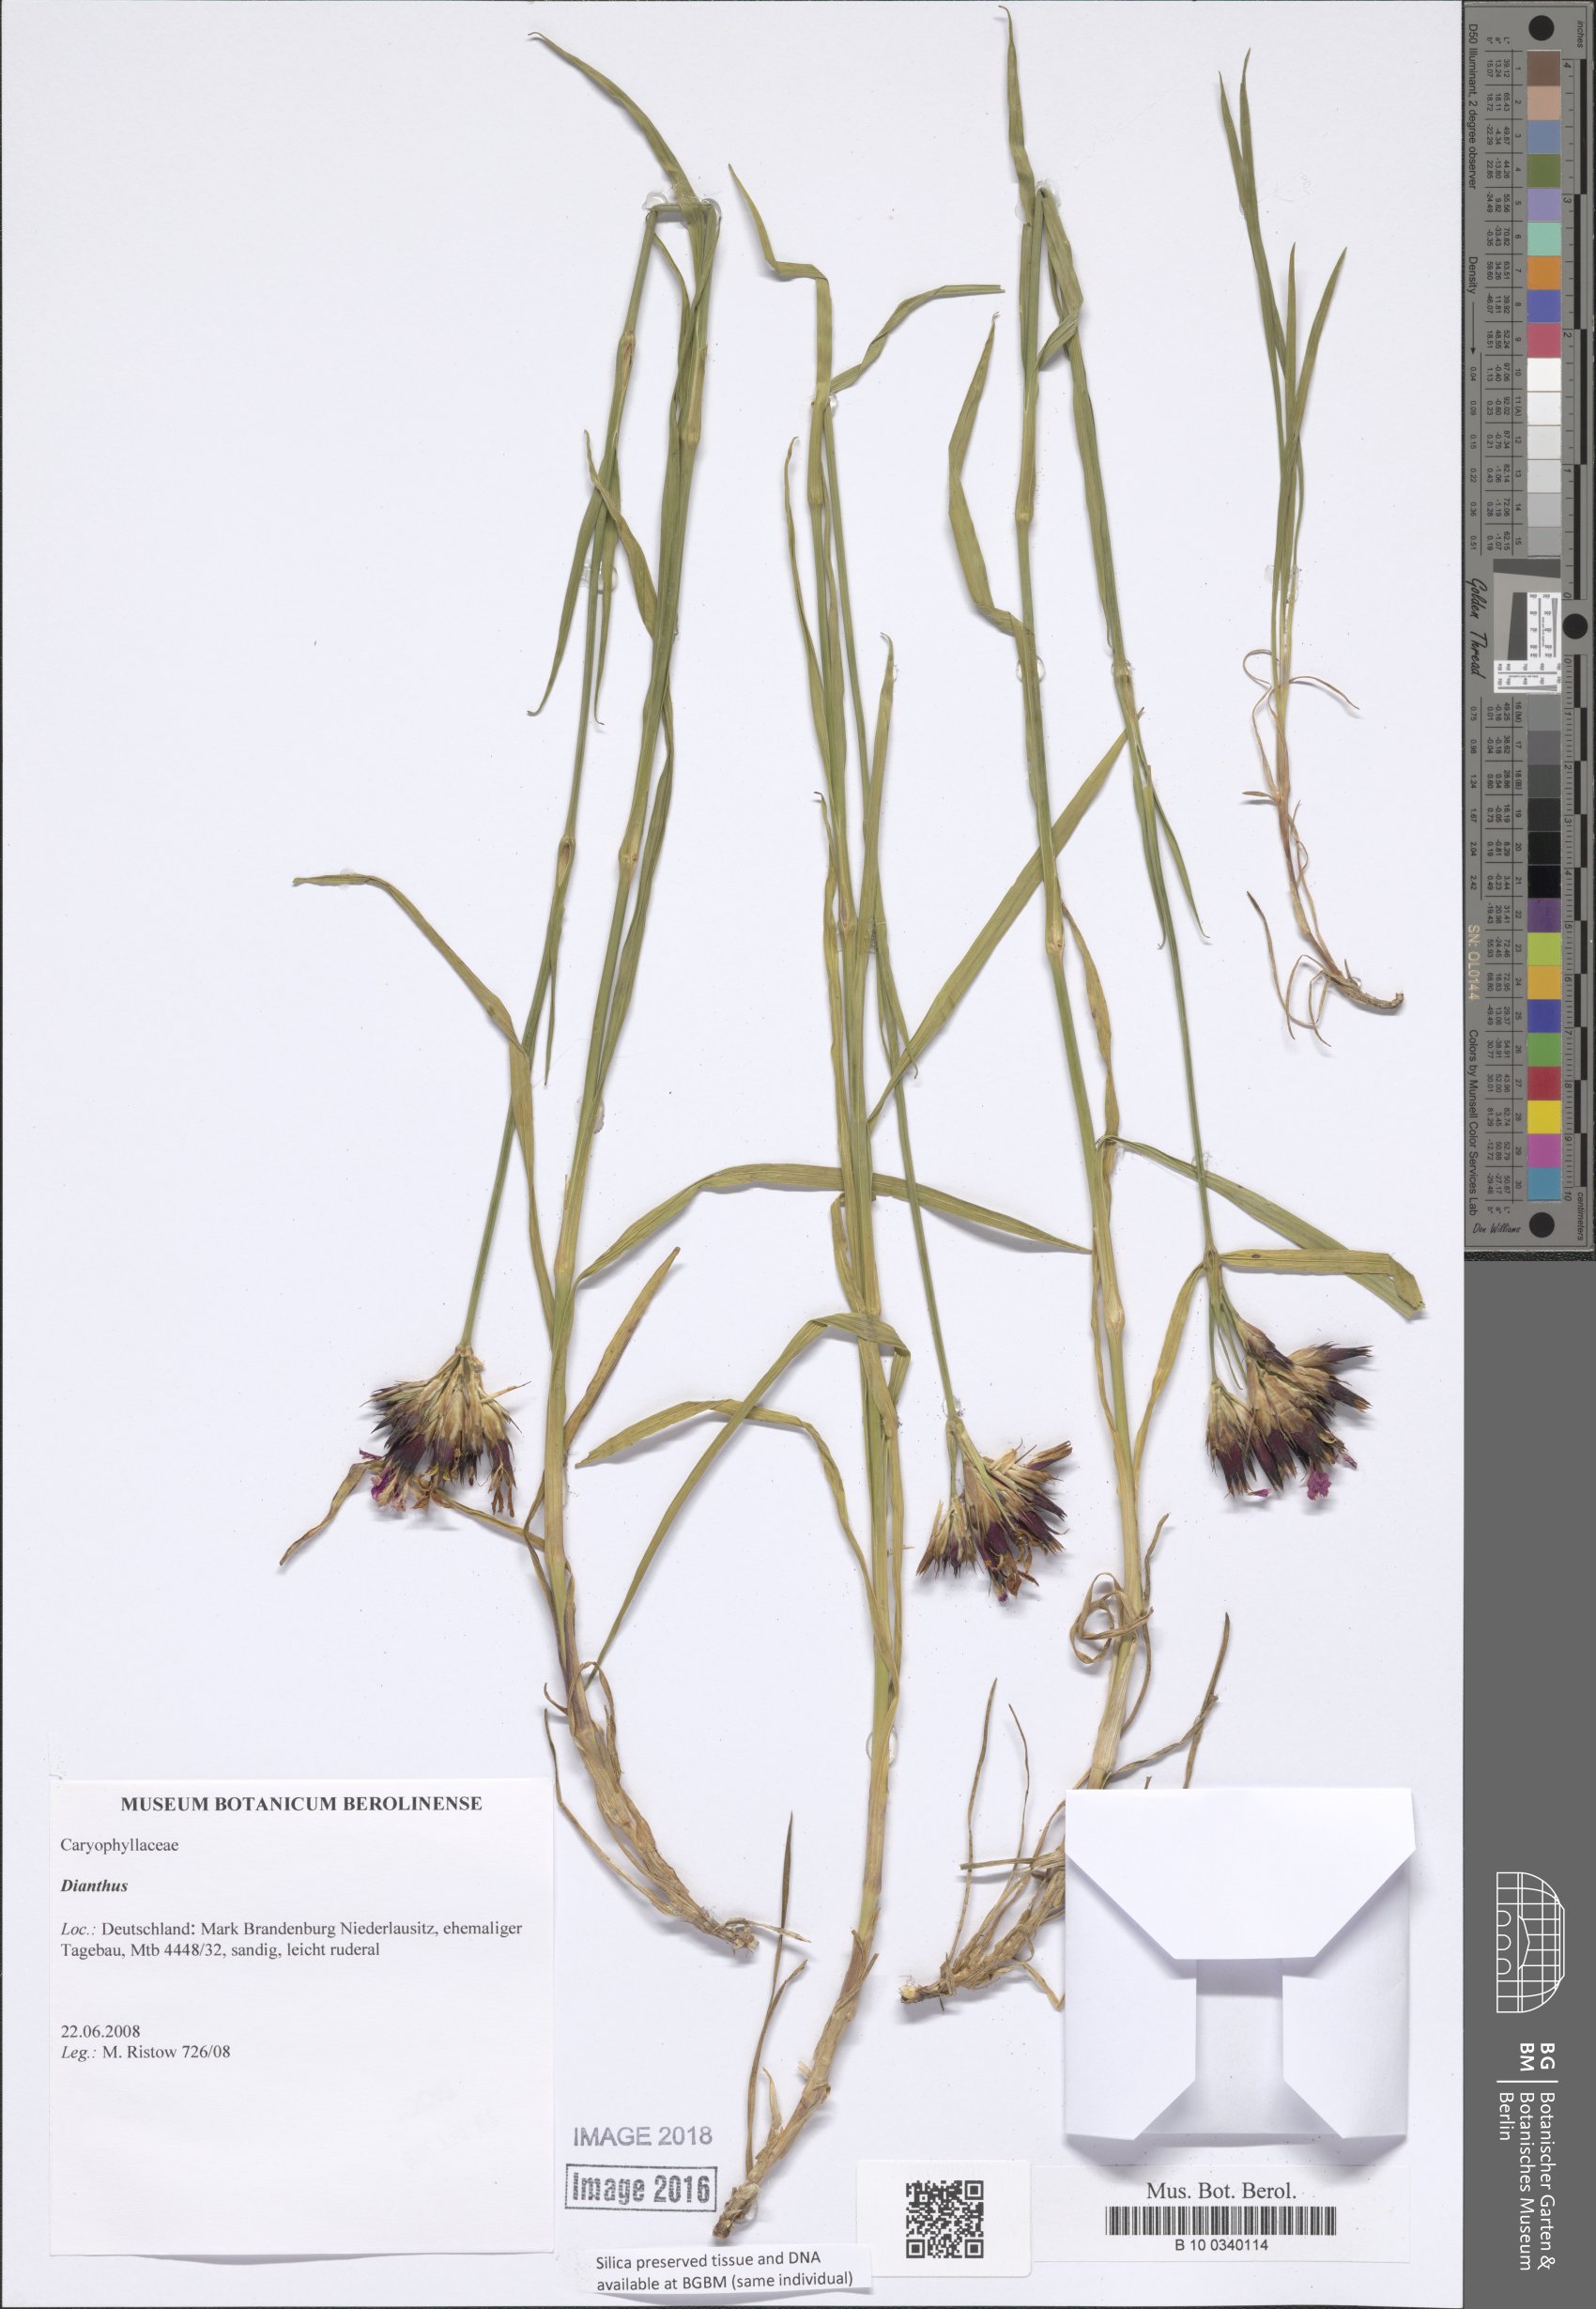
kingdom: Plantae
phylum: Tracheophyta
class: Magnoliopsida
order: Caryophyllales
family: Caryophyllaceae
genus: Dianthus
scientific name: Dianthus carthusianorum
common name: Carthusian pink
